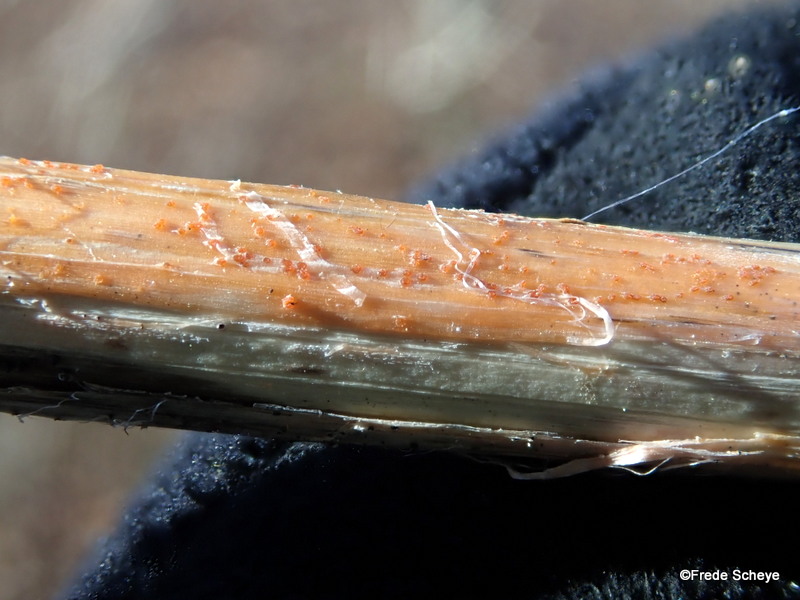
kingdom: Fungi
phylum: Ascomycota
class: Leotiomycetes
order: Helotiales
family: Calloriaceae
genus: Calloria
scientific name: Calloria urticae
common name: nælde-orangeskive
